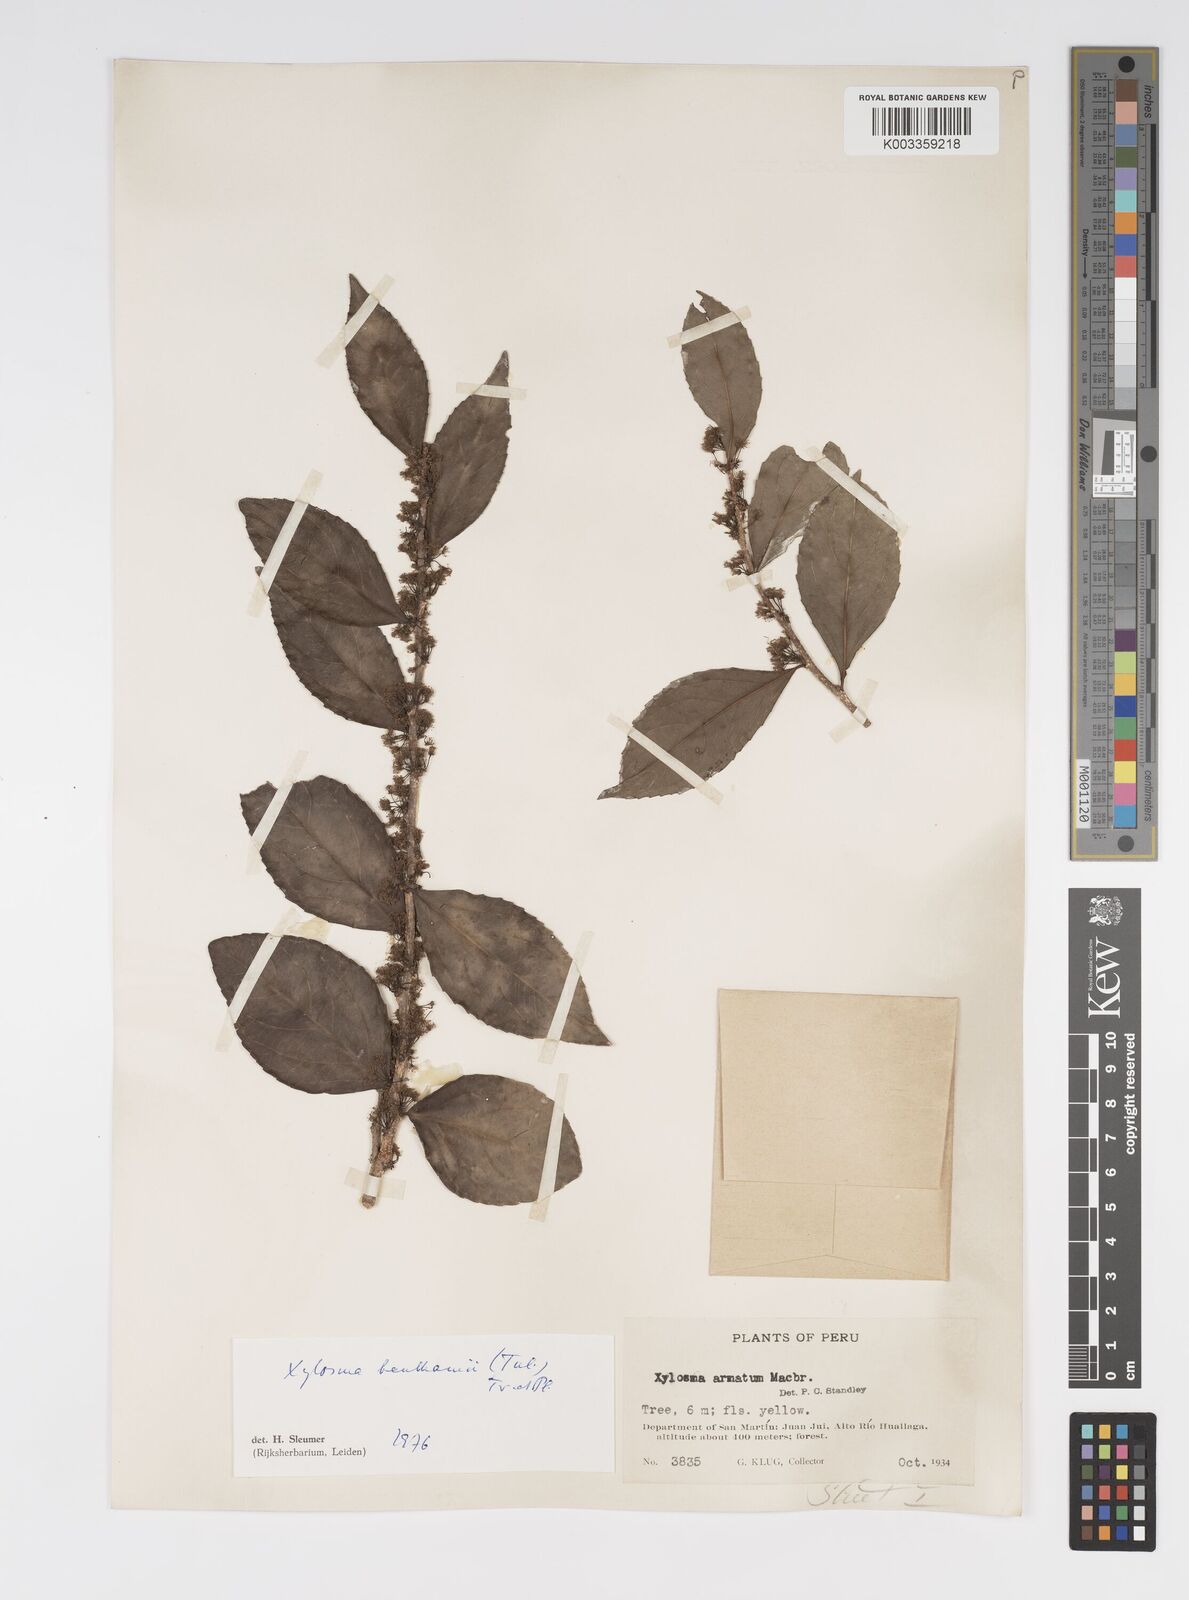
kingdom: Plantae
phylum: Tracheophyta
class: Magnoliopsida
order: Malpighiales
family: Salicaceae
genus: Xylosma
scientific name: Xylosma benthamii
